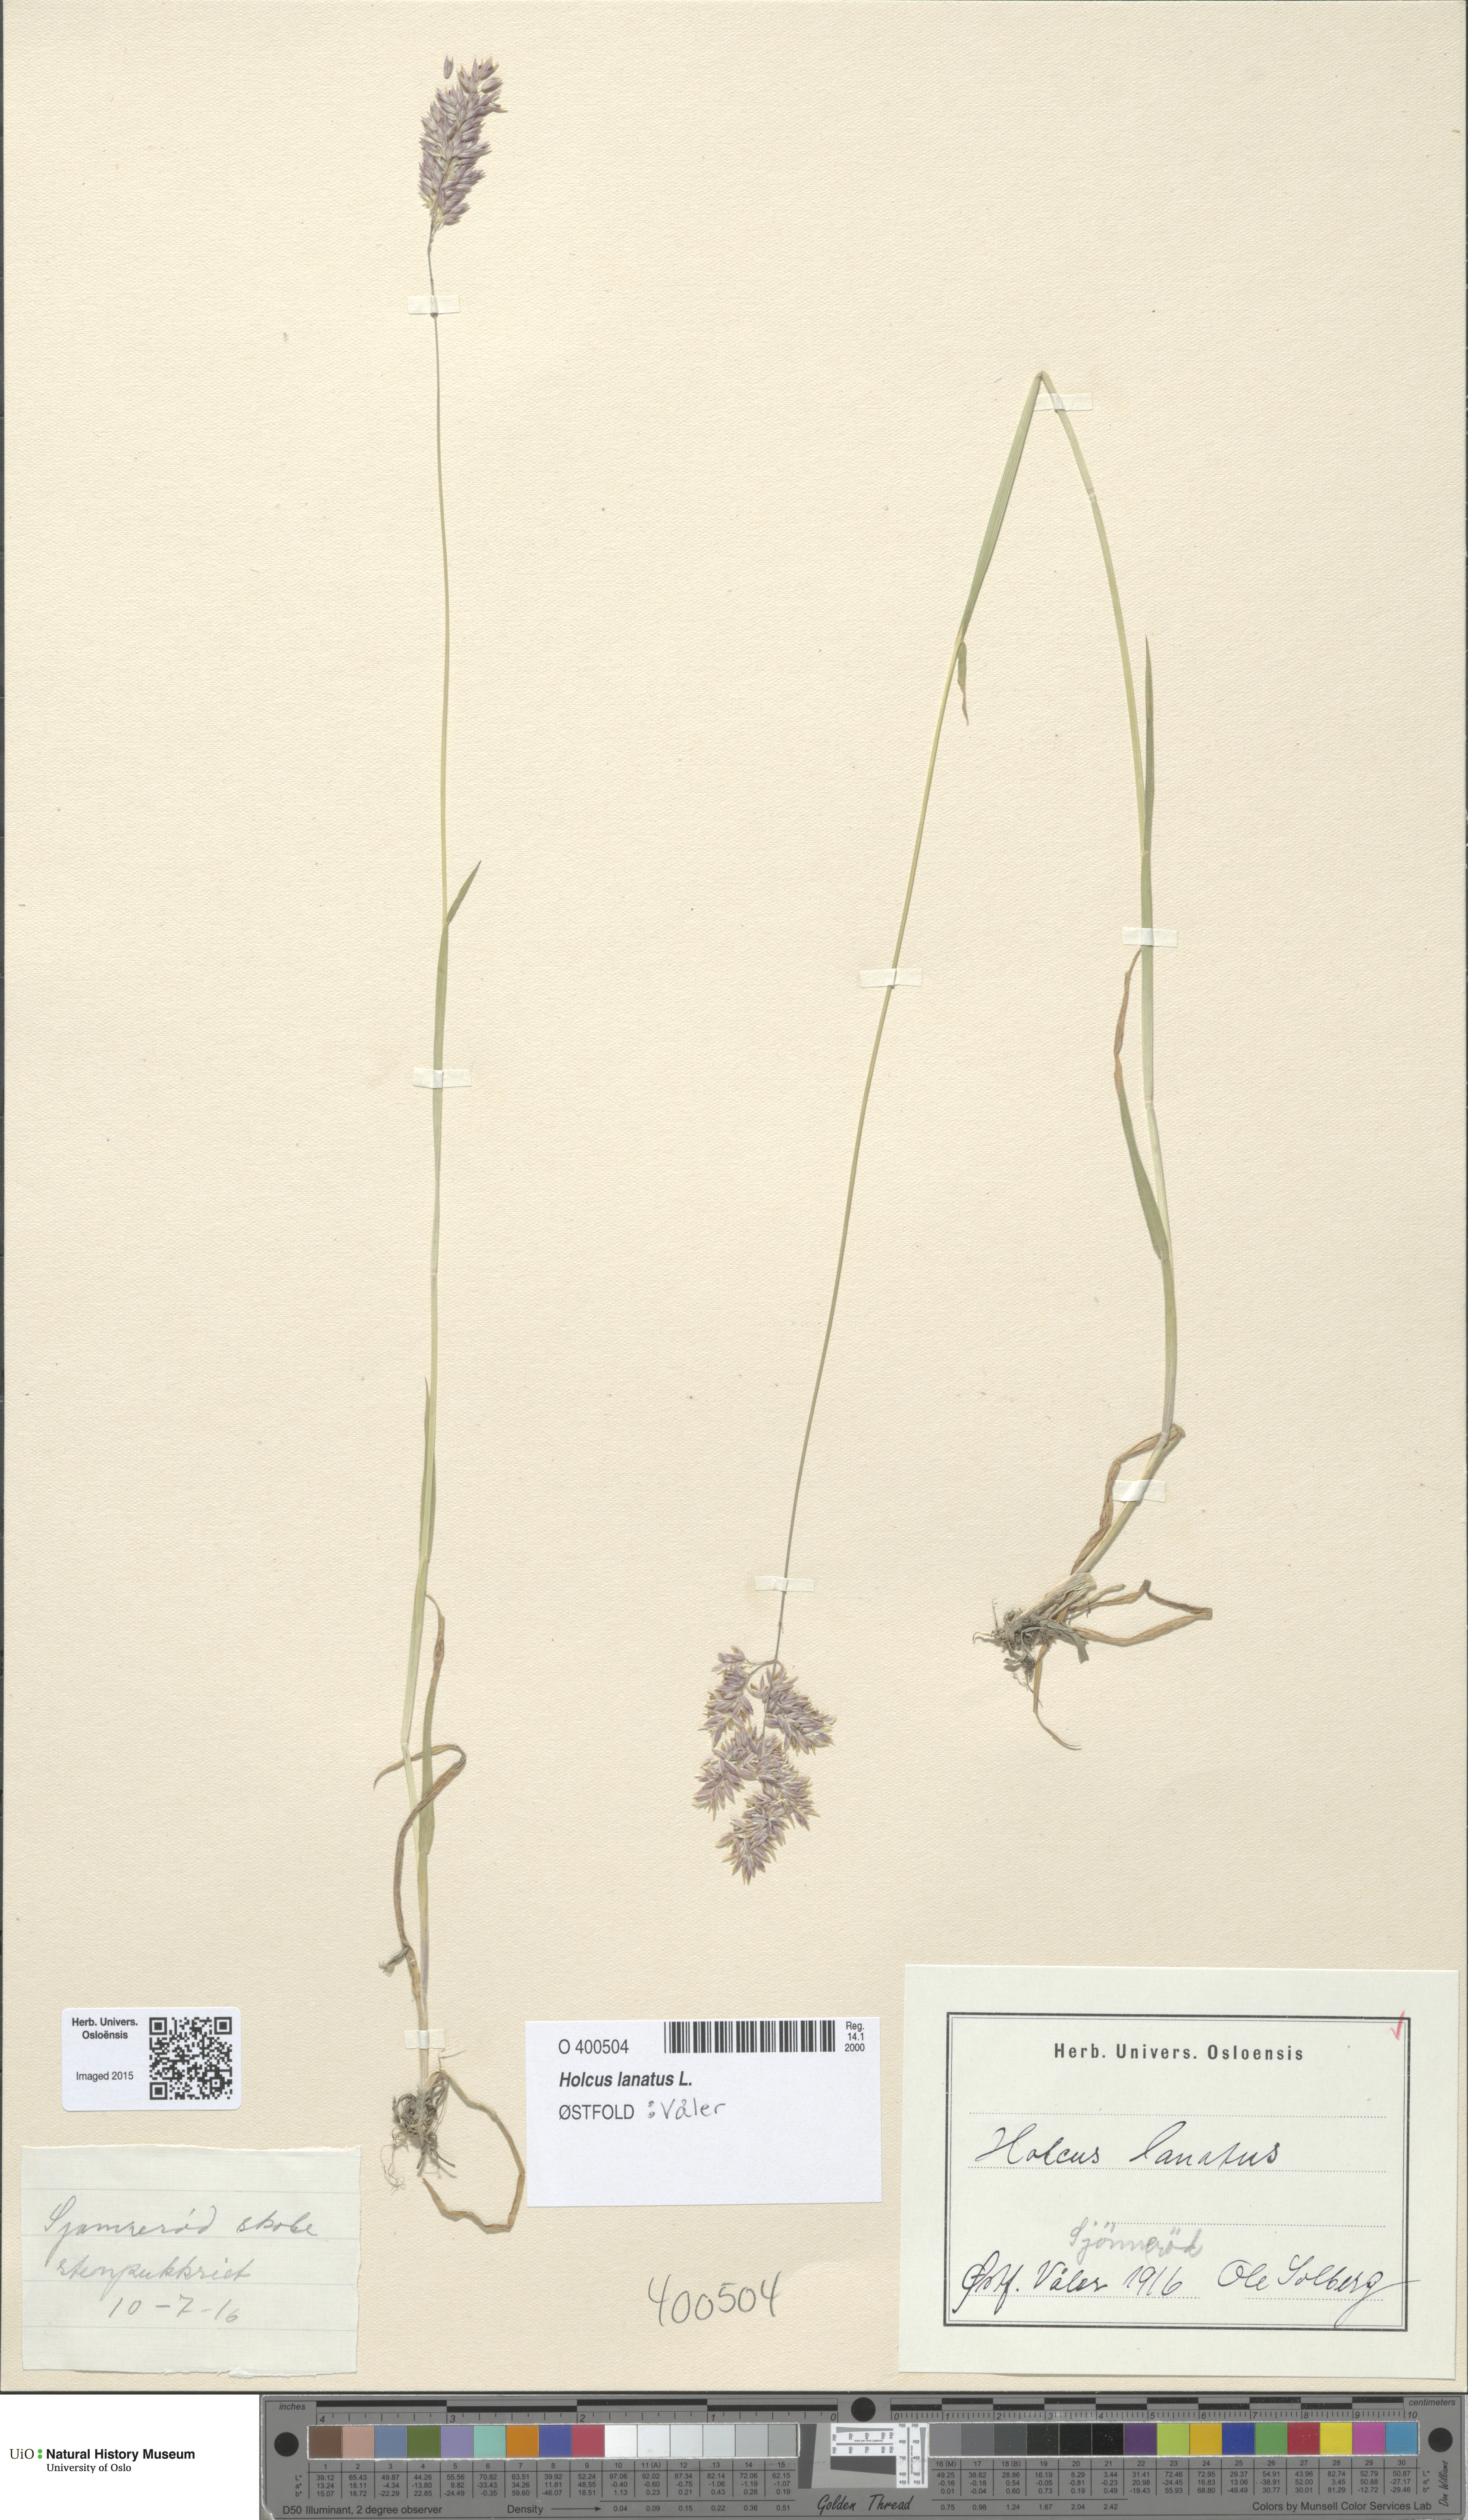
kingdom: Plantae
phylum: Tracheophyta
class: Liliopsida
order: Poales
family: Poaceae
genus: Holcus
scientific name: Holcus lanatus
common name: Yorkshire-fog
